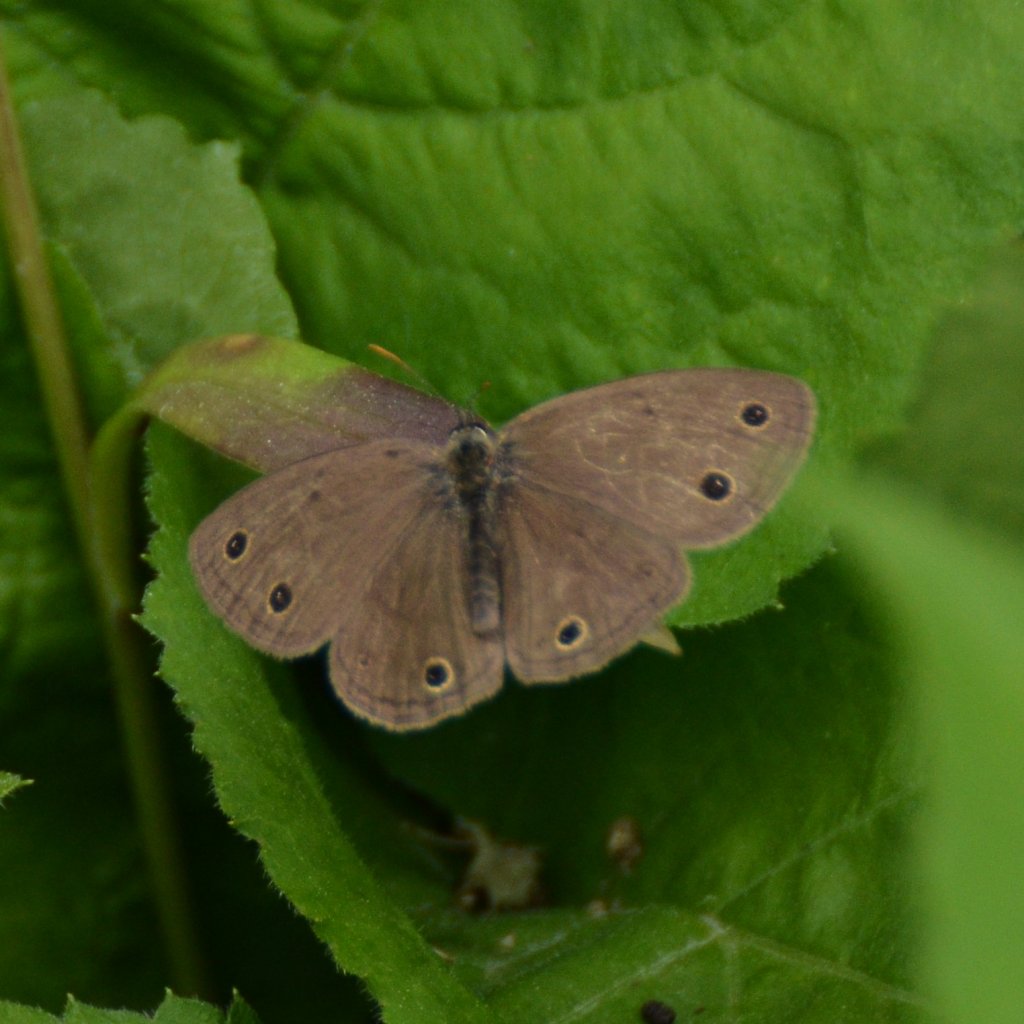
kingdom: Animalia
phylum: Arthropoda
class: Insecta
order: Lepidoptera
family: Nymphalidae
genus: Euptychia
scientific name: Euptychia cymela
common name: Little Wood Satyr
